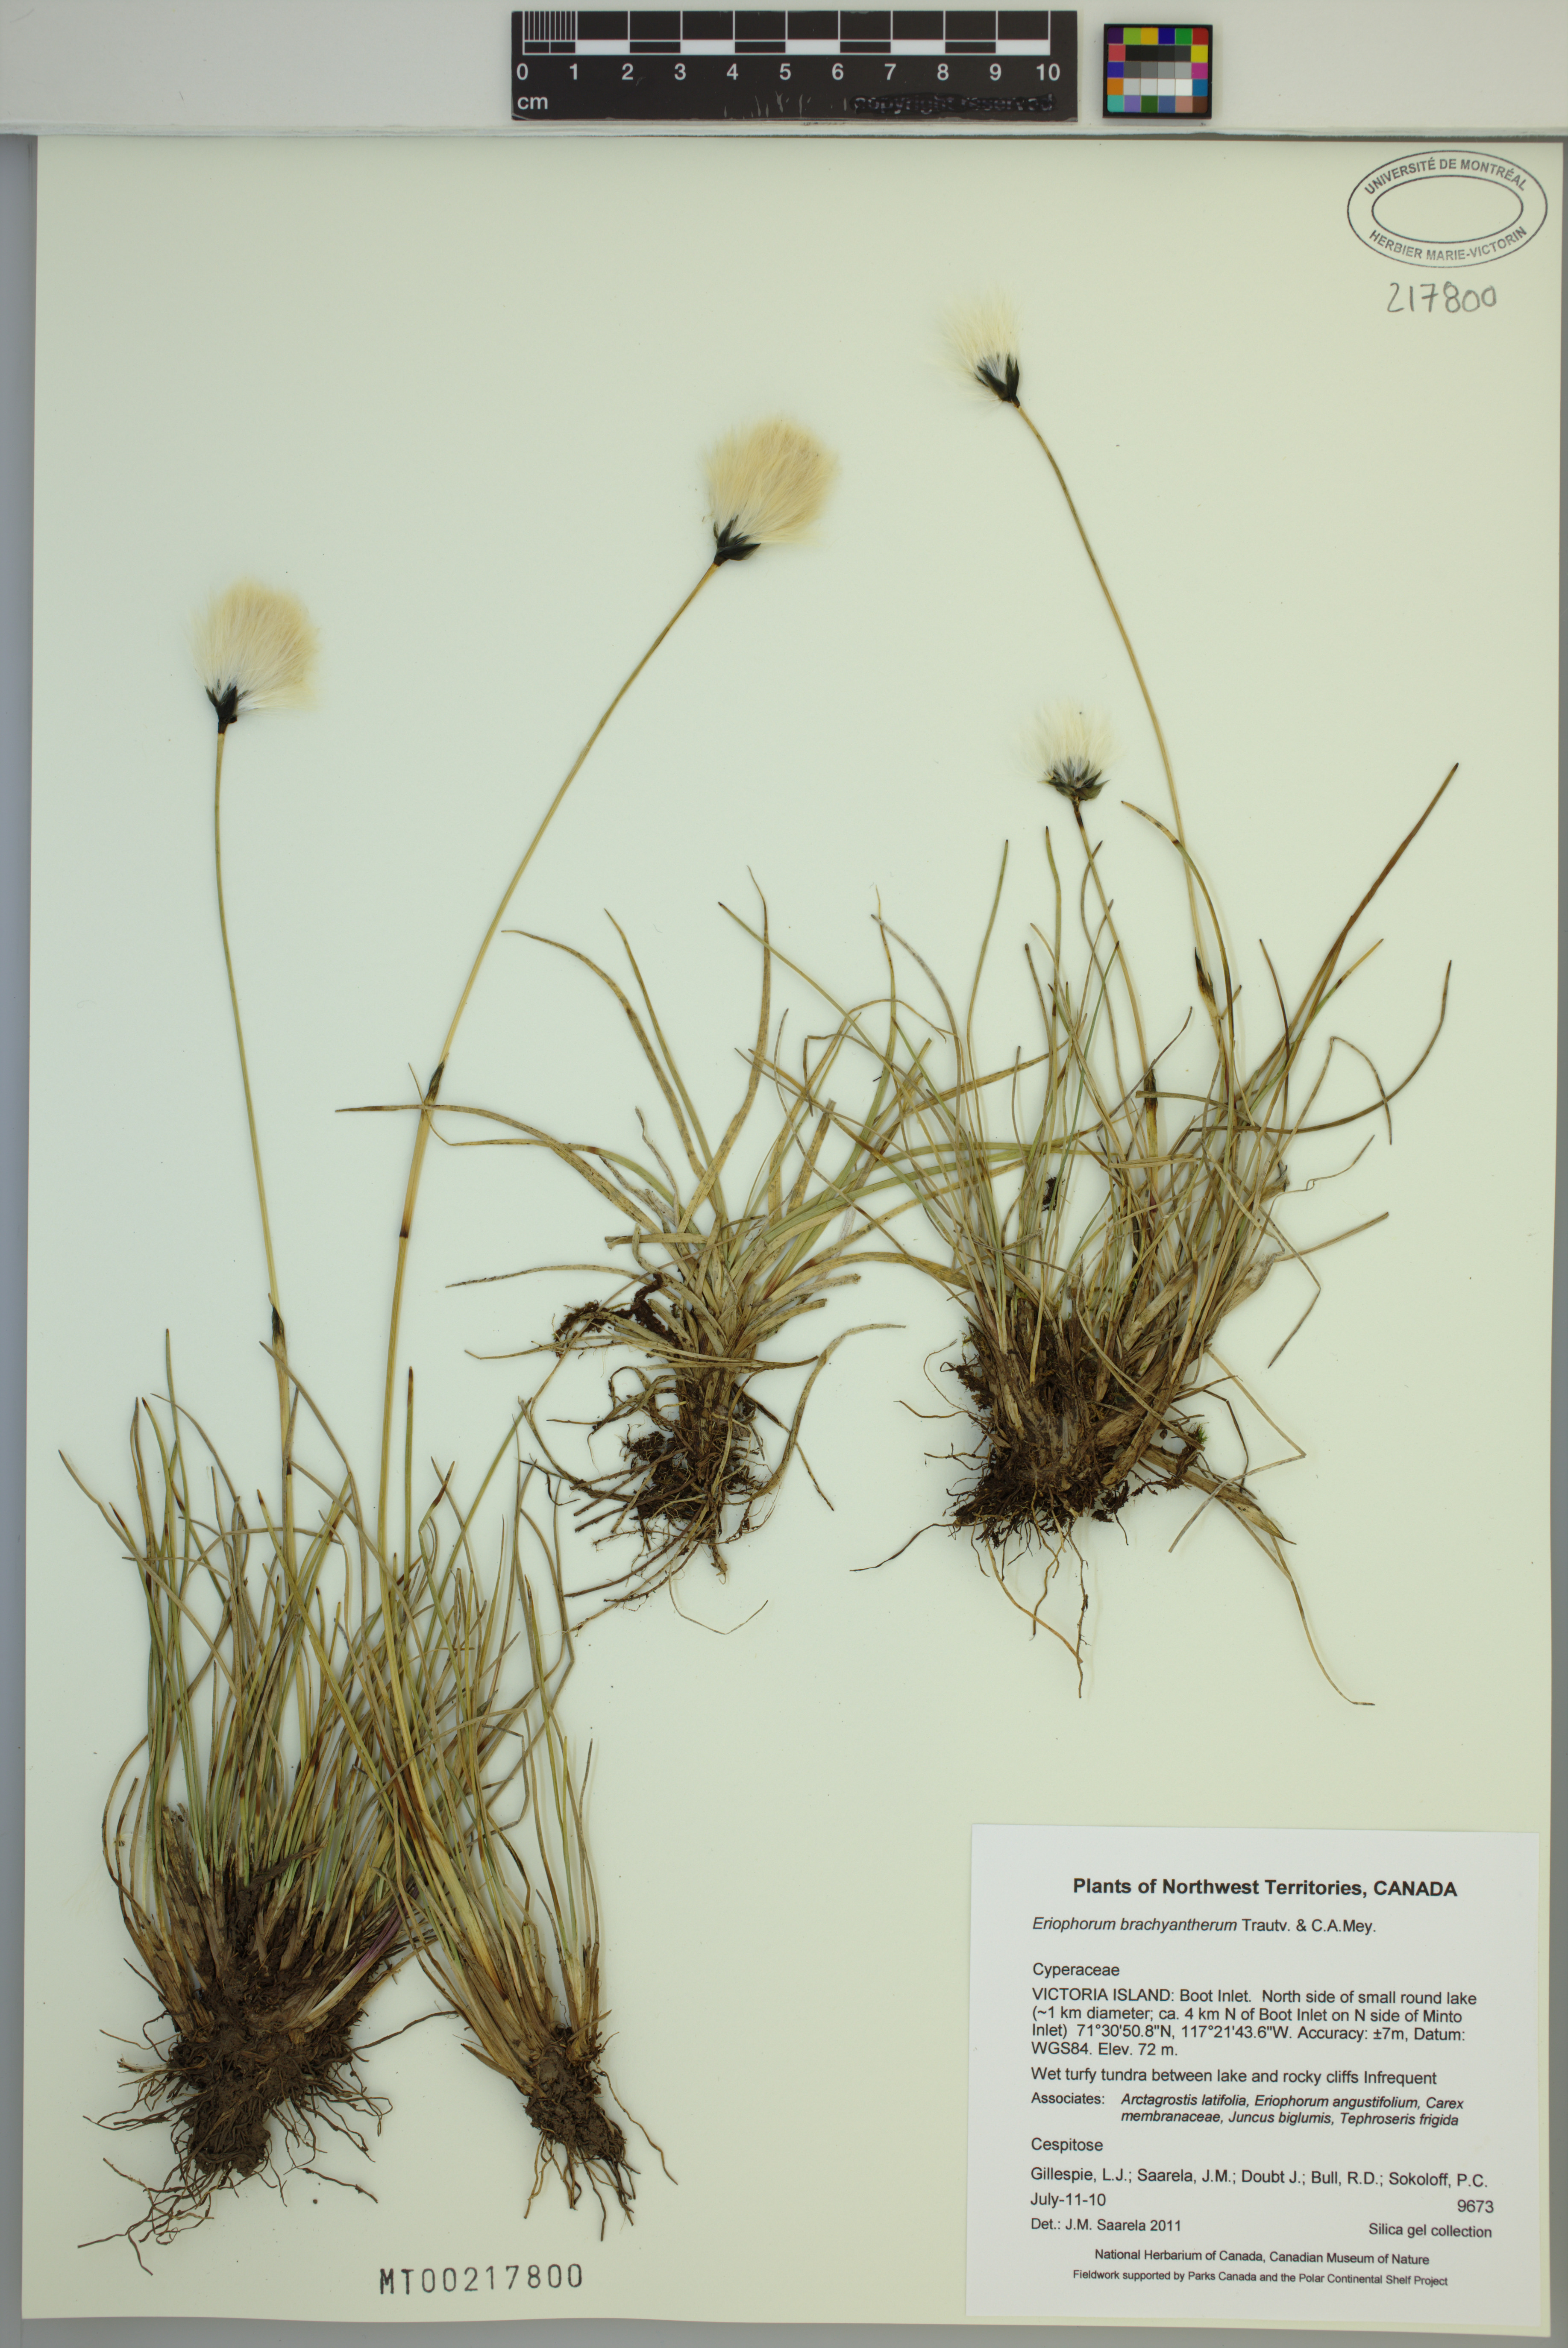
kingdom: Plantae
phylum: Tracheophyta
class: Liliopsida
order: Poales
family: Cyperaceae
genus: Eriophorum
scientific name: Eriophorum brachyantherum
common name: Closed-sheathed cottongrass
